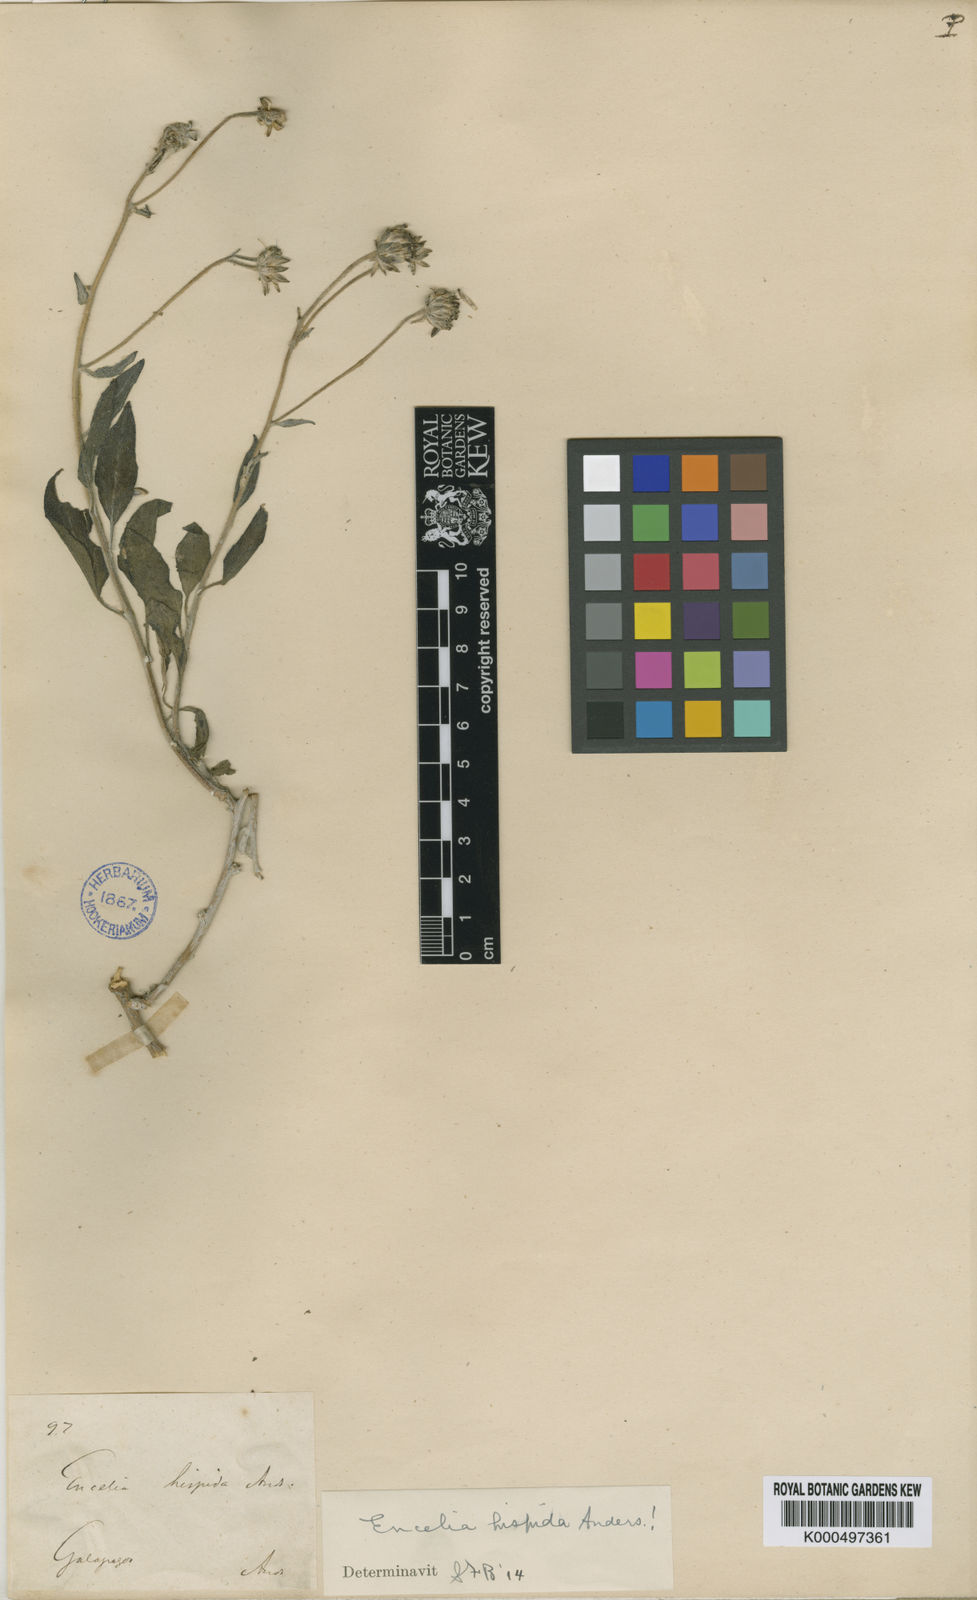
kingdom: Plantae
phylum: Tracheophyta
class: Magnoliopsida
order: Asterales
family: Asteraceae
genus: Encelia
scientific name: Encelia hispida
